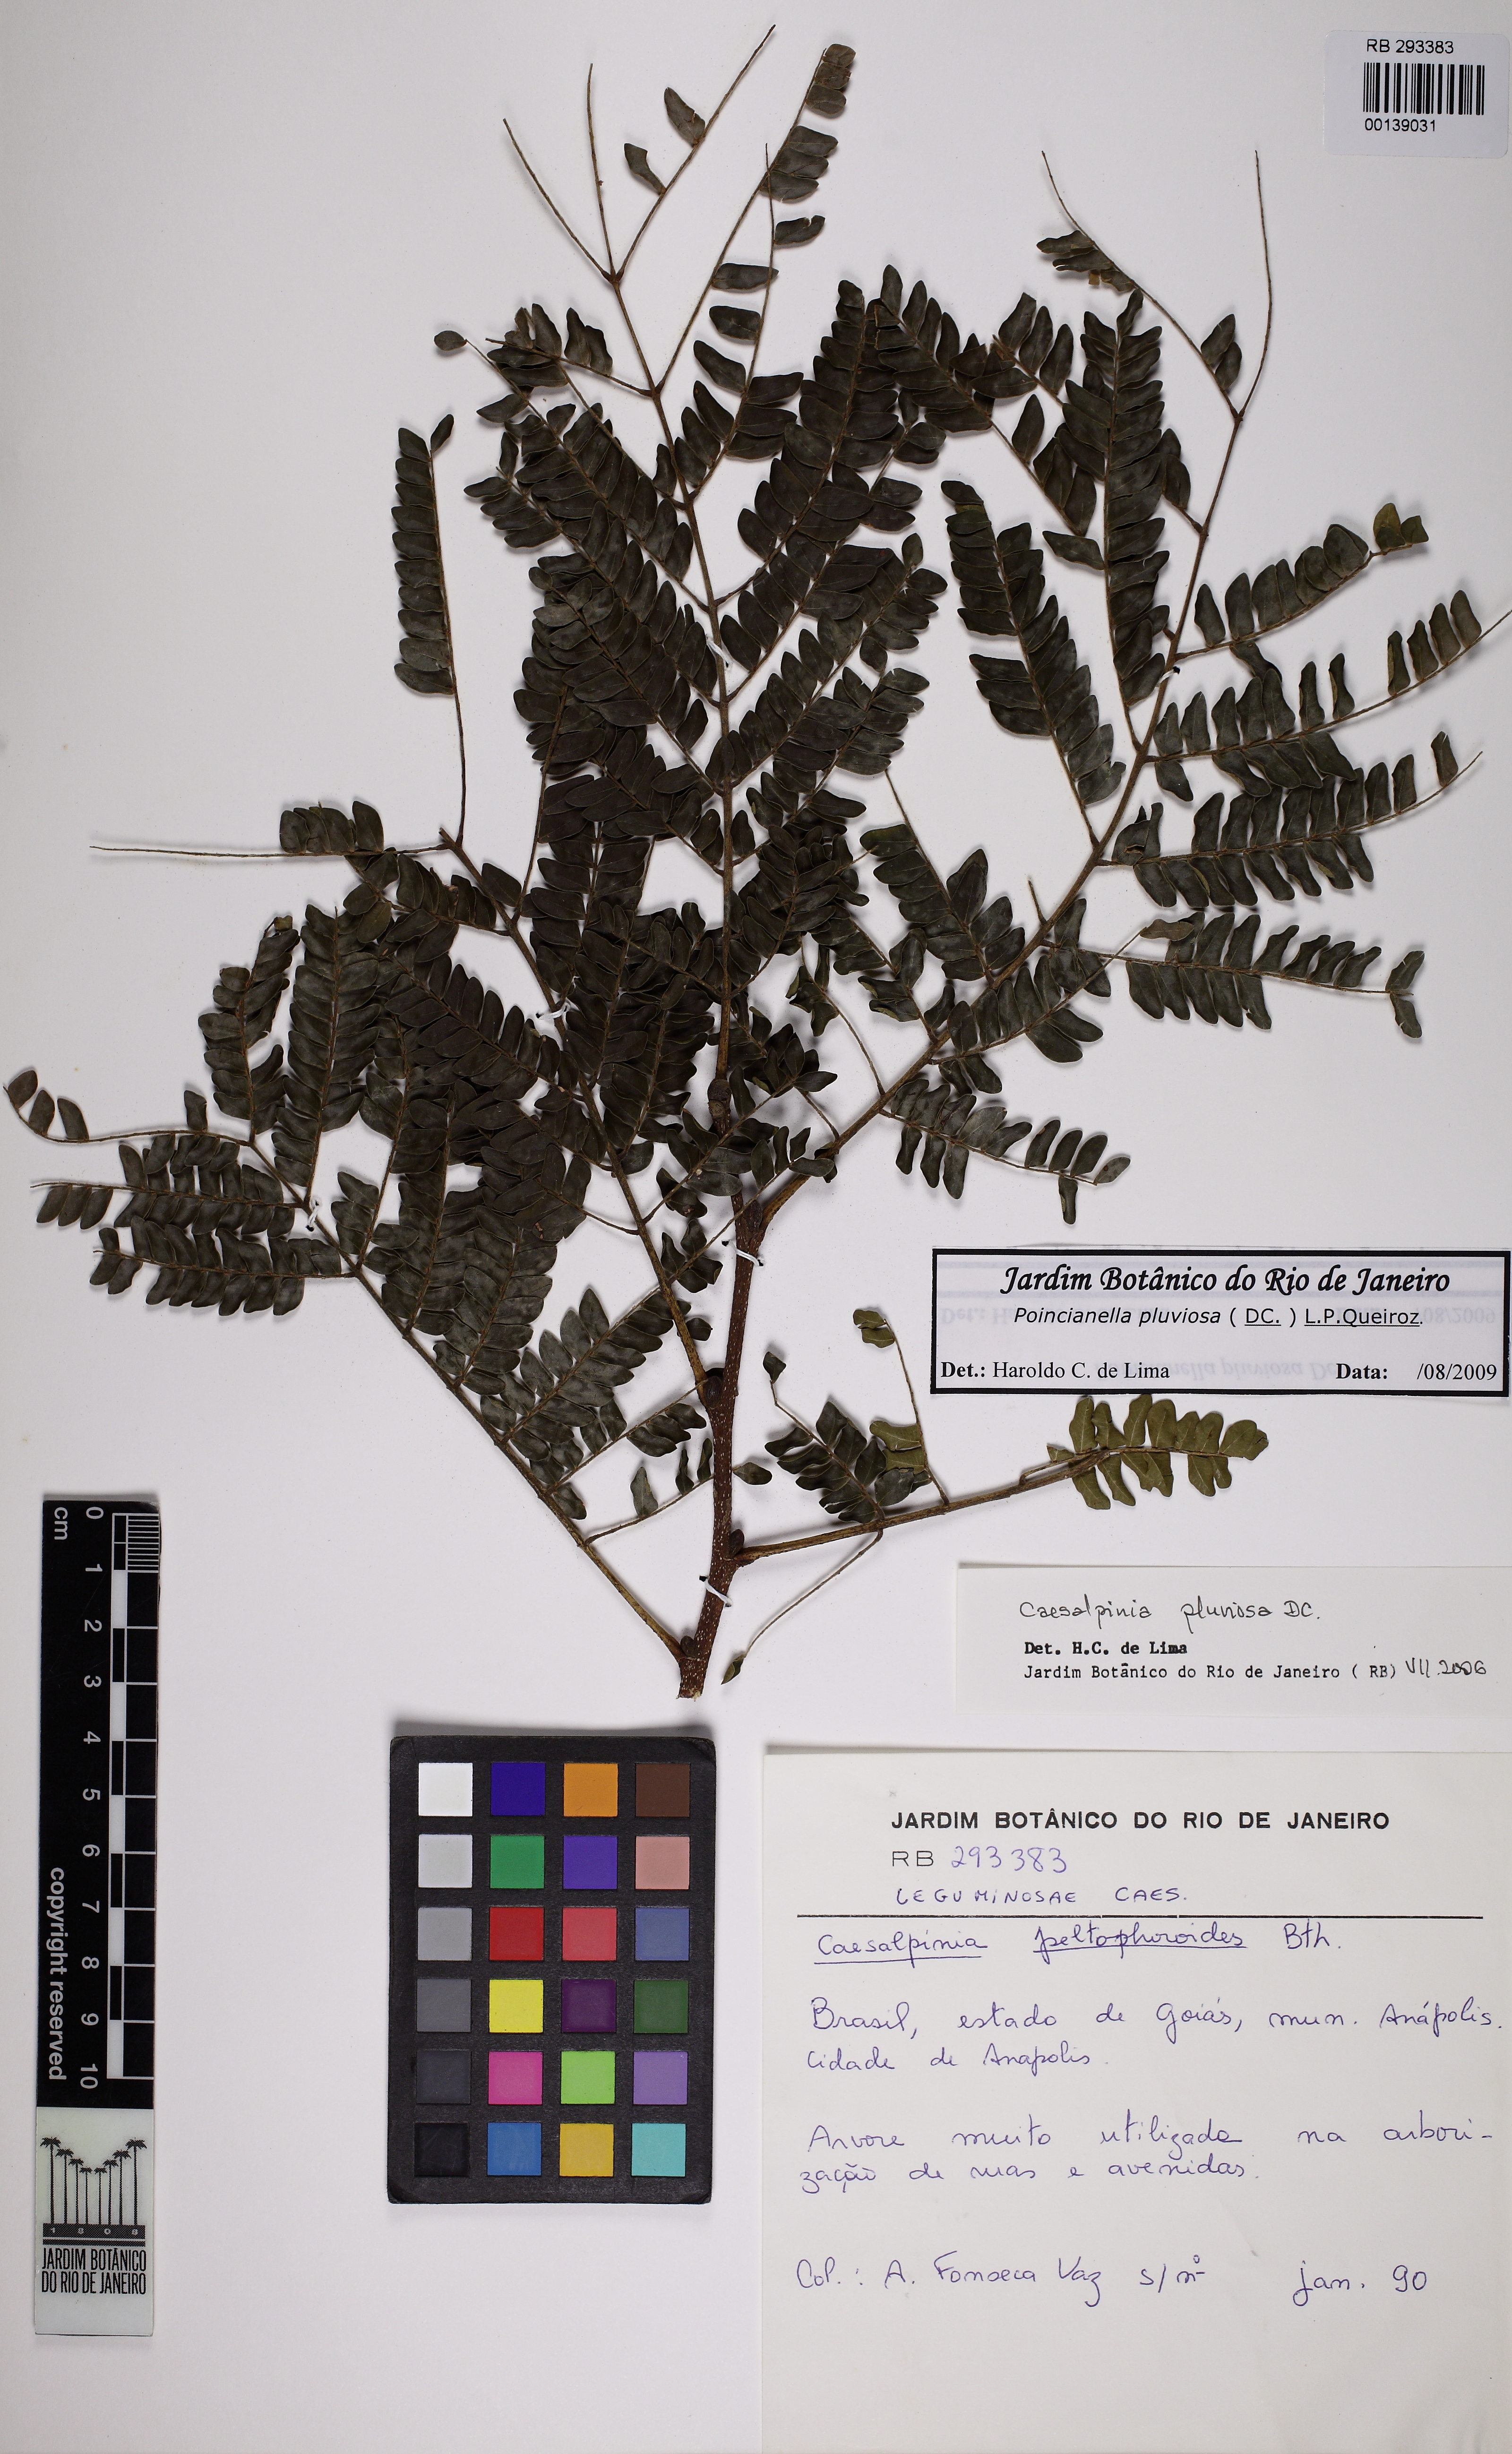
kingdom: Plantae
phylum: Tracheophyta
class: Magnoliopsida
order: Fabales
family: Fabaceae
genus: Cenostigma
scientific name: Cenostigma pluviosum
